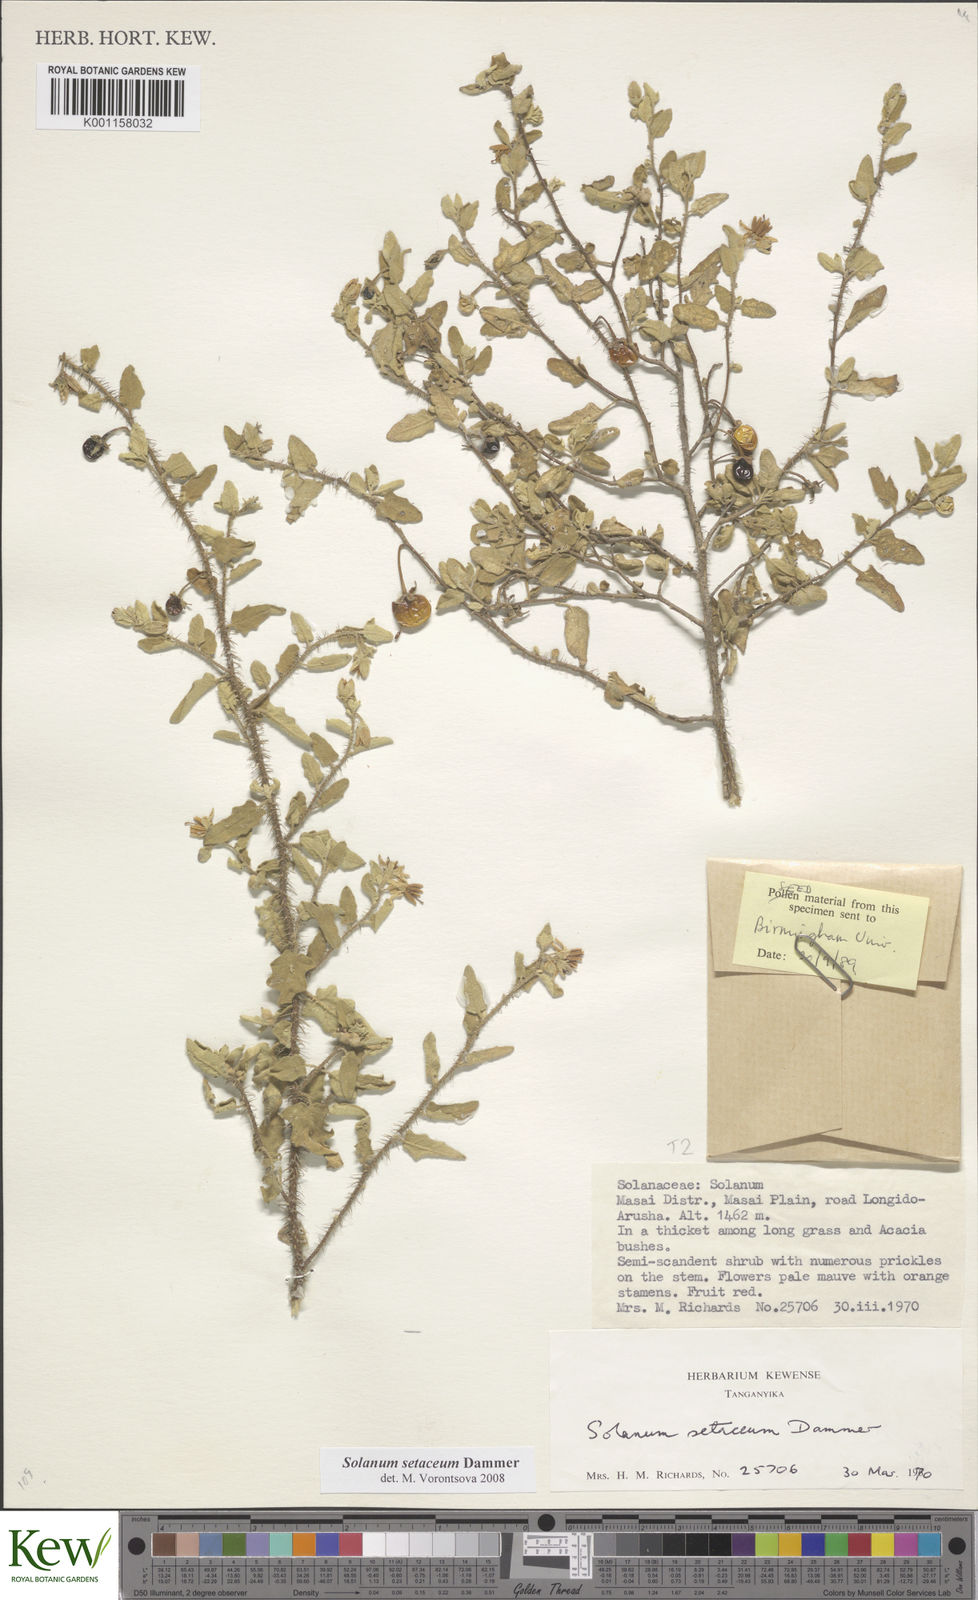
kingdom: Plantae
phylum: Tracheophyta
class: Magnoliopsida
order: Solanales
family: Solanaceae
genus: Solanum
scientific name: Solanum setaceum
